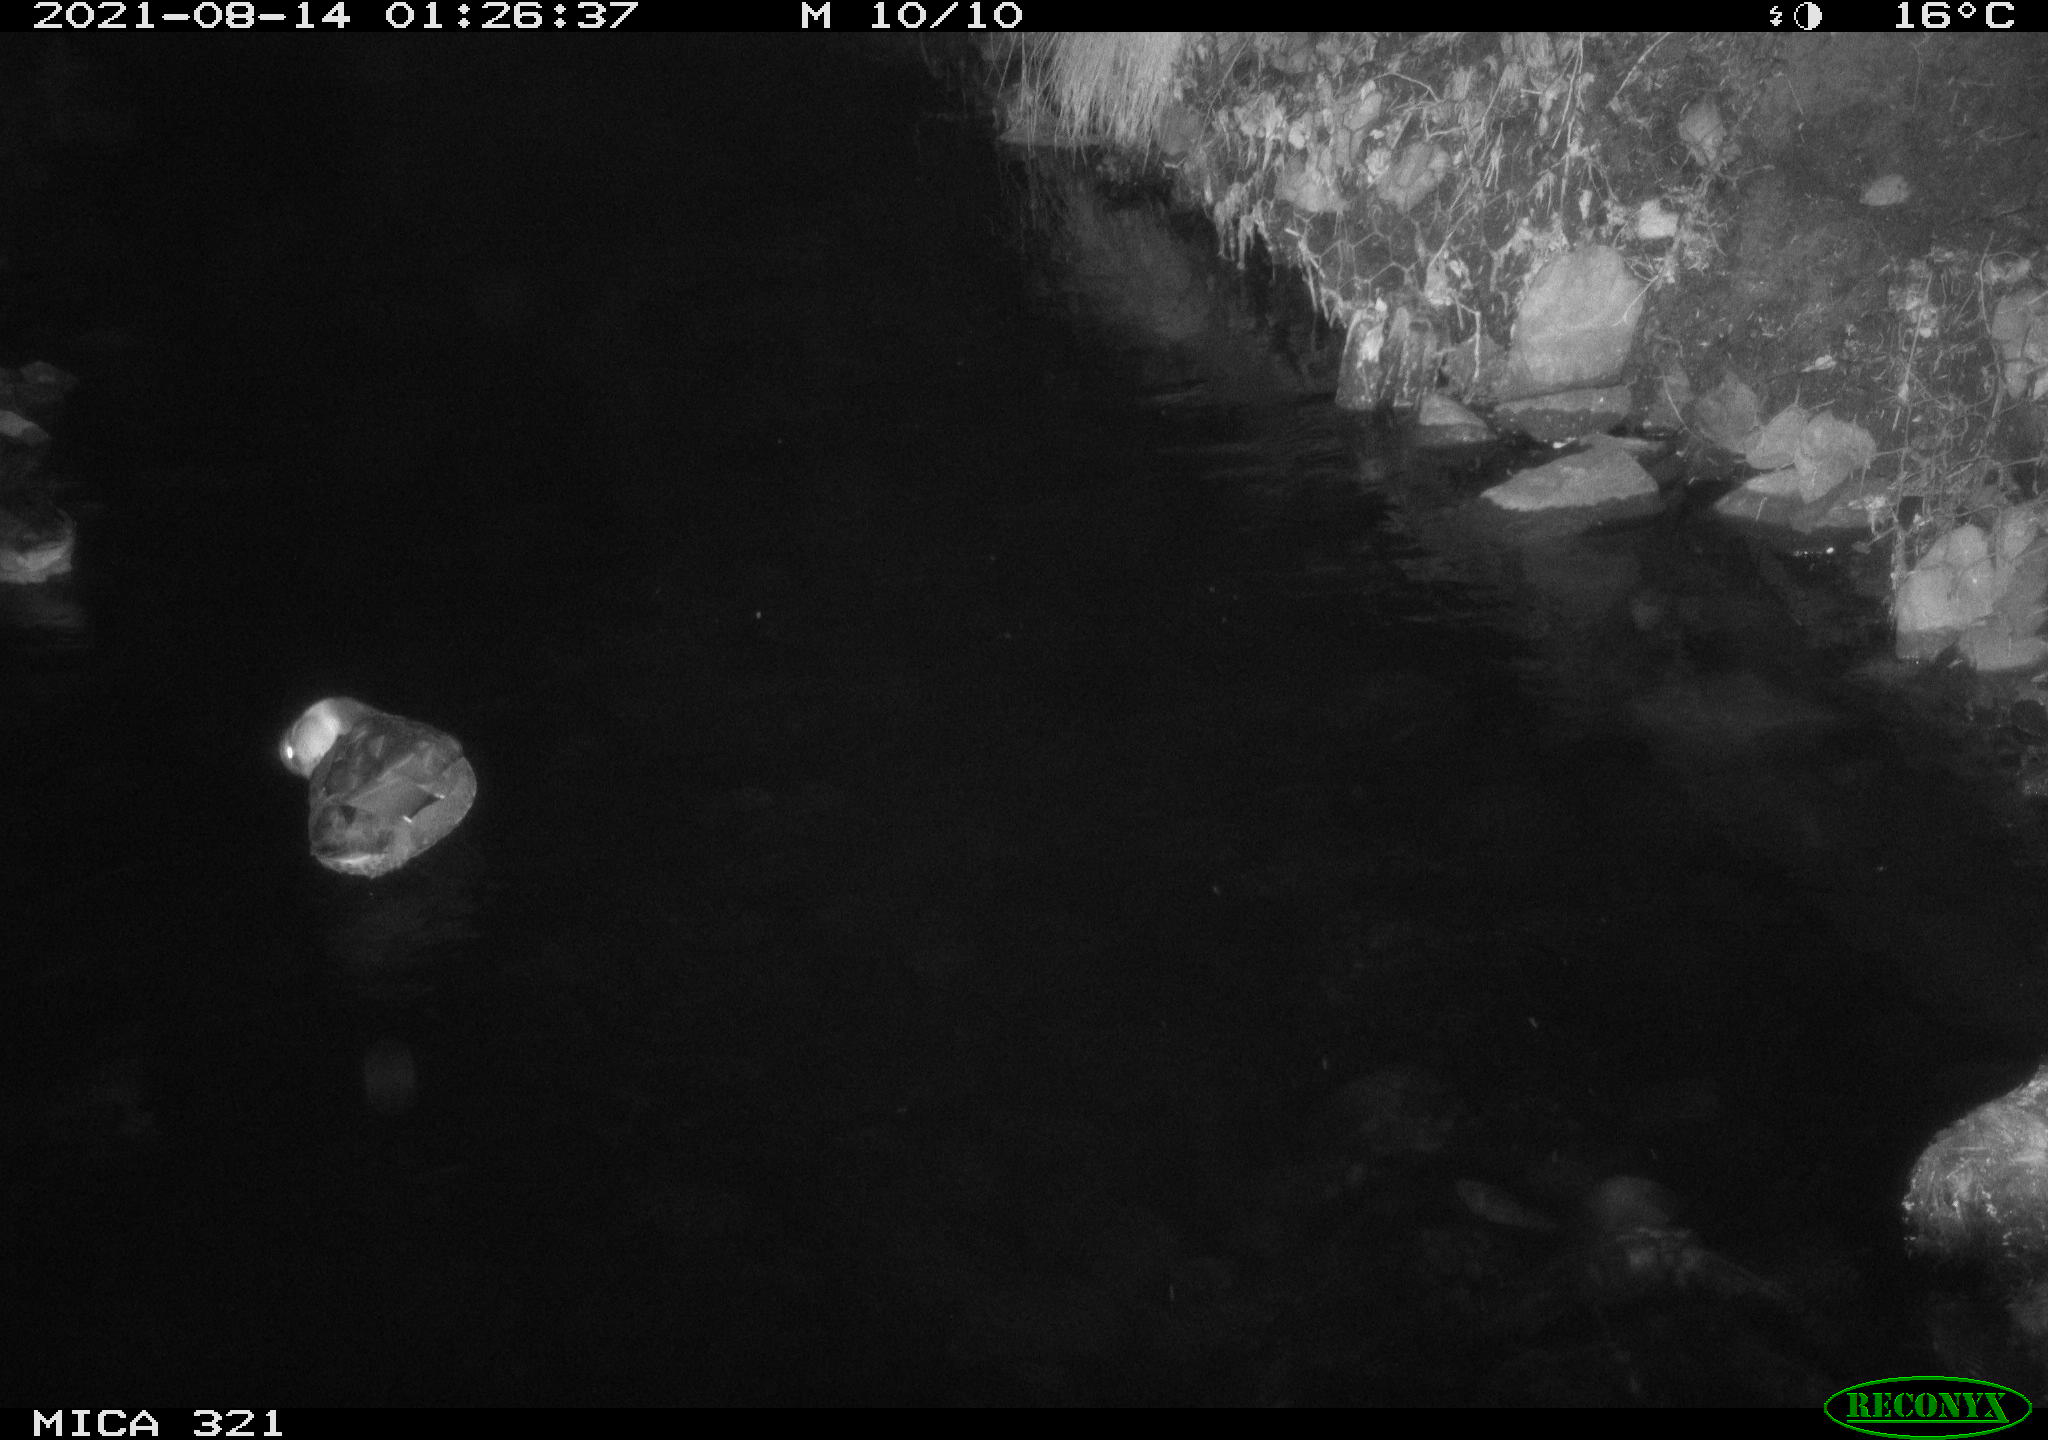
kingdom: Animalia
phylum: Chordata
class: Aves
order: Anseriformes
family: Anatidae
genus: Anas
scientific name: Anas platyrhynchos
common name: Mallard
